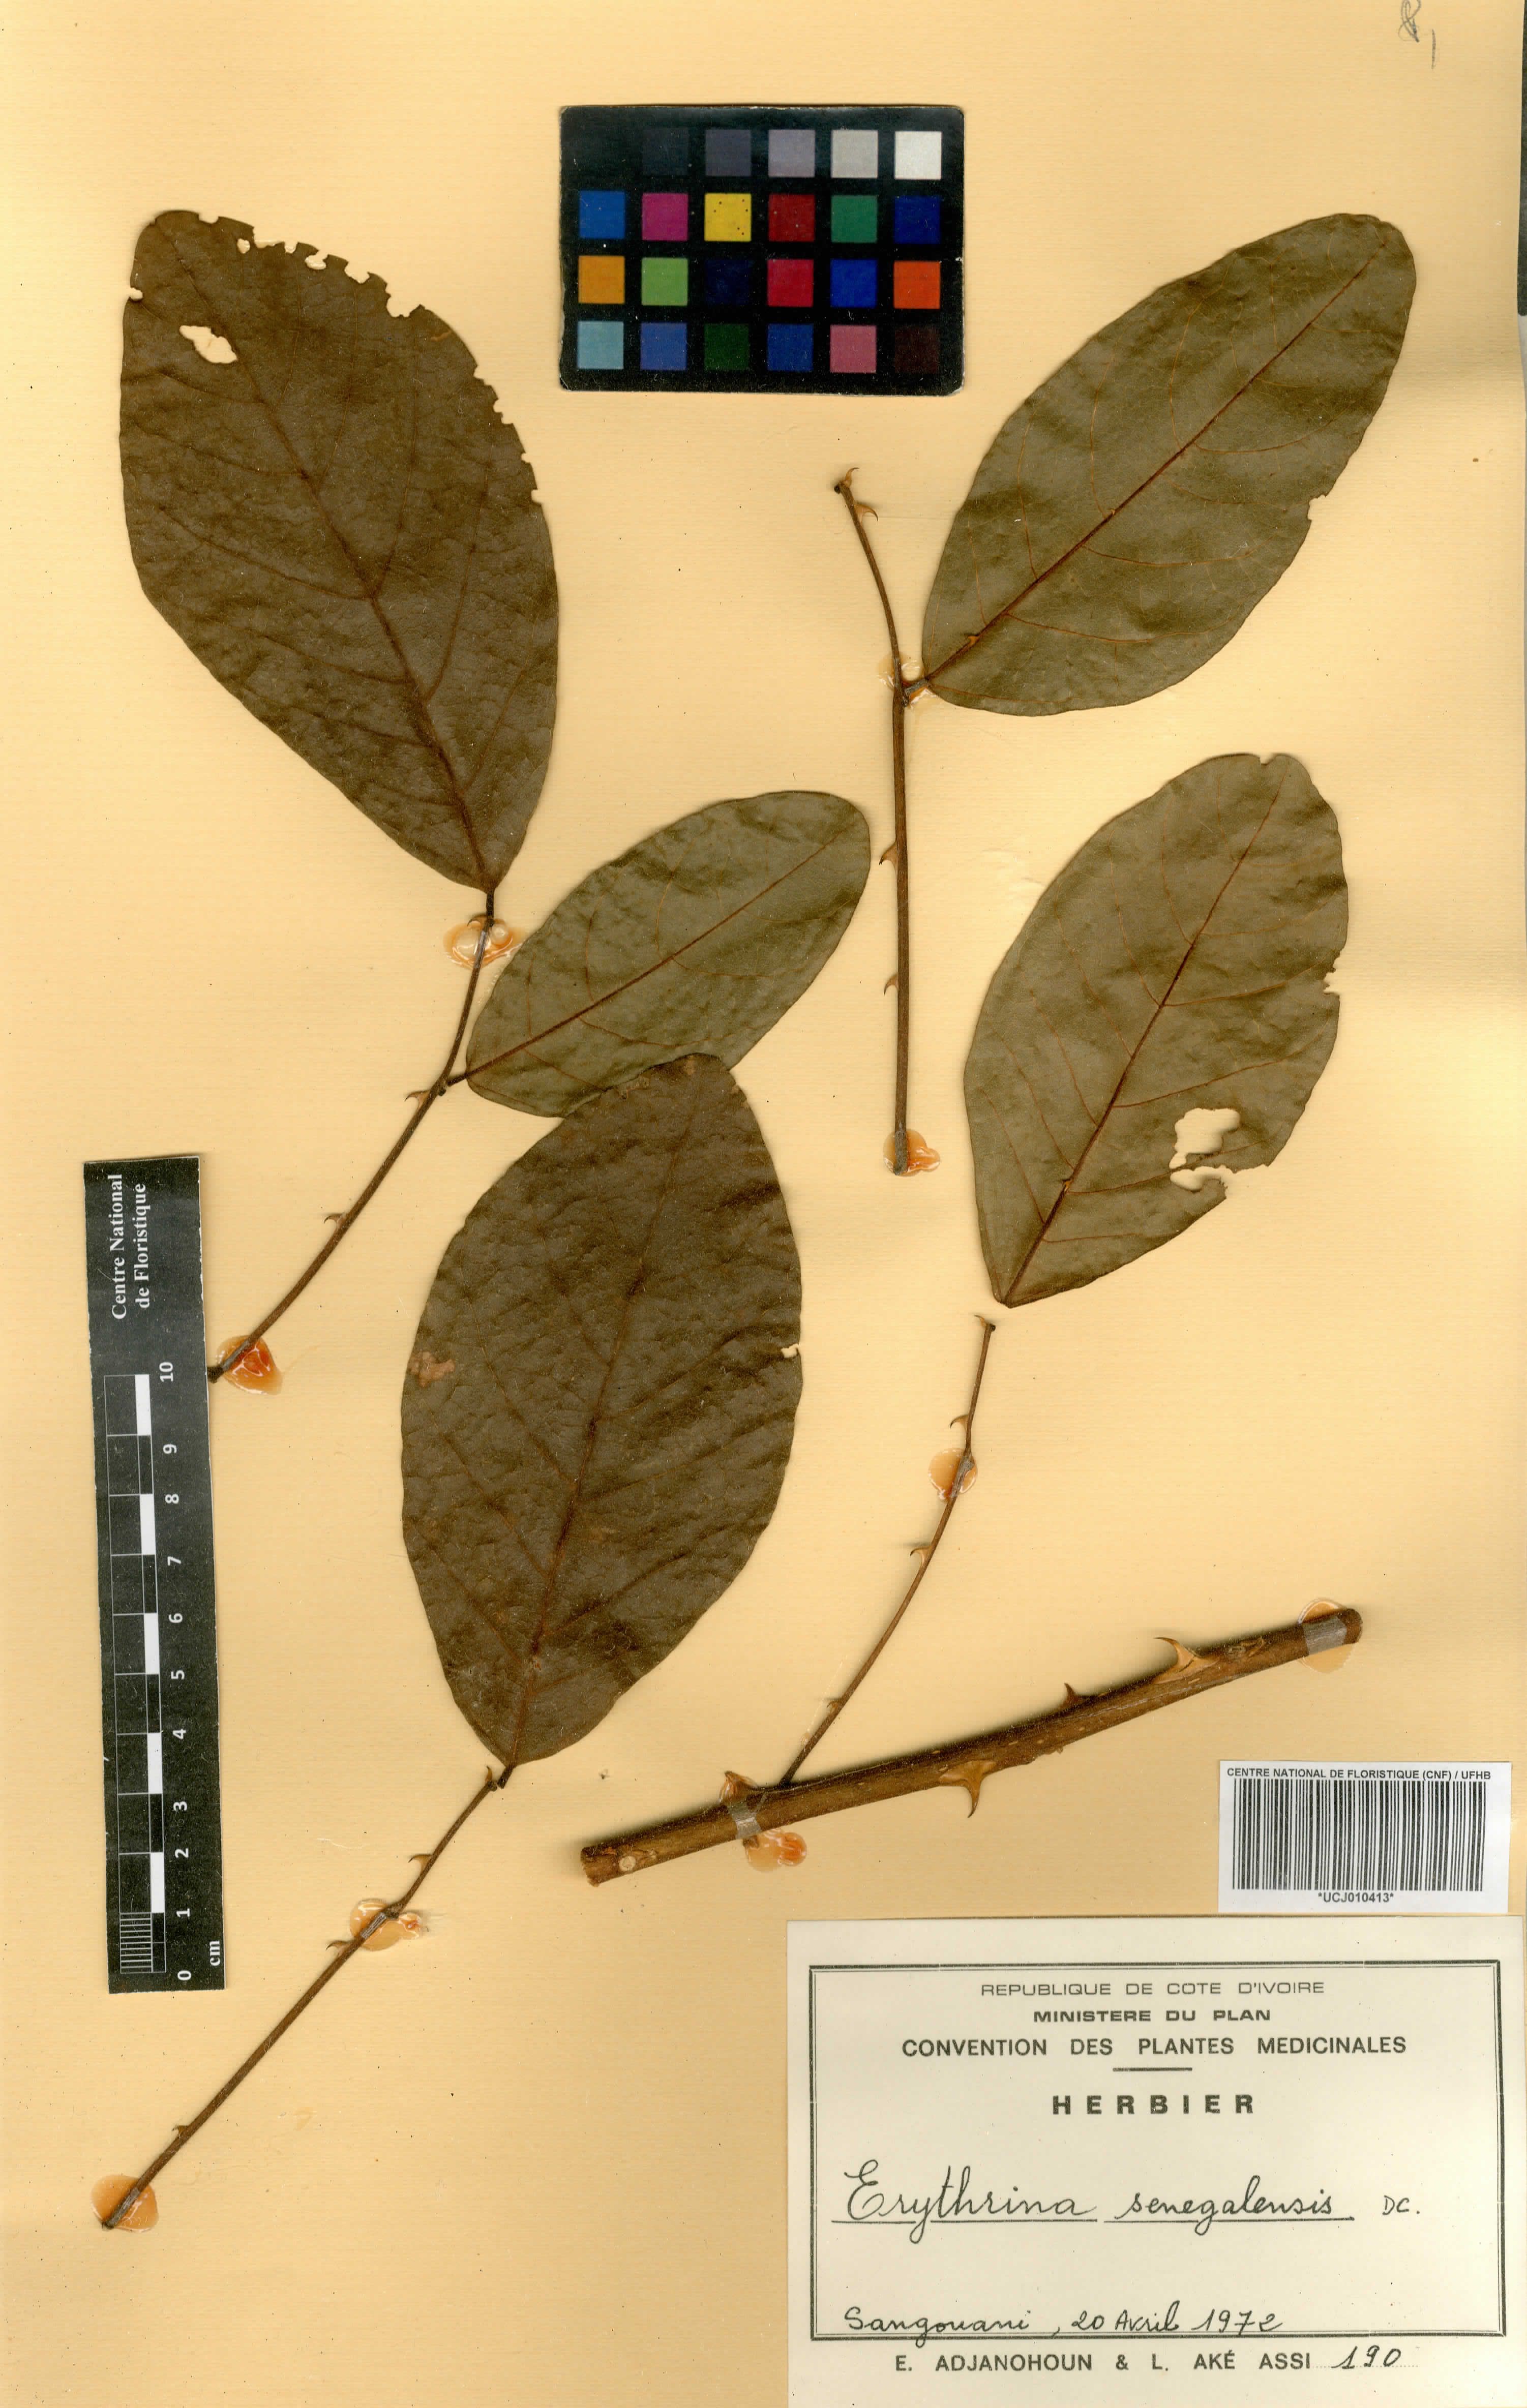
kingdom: Plantae
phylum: Tracheophyta
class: Magnoliopsida
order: Fabales
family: Fabaceae
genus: Erythrina
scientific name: Erythrina senegalensis
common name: Senegal coraltree
